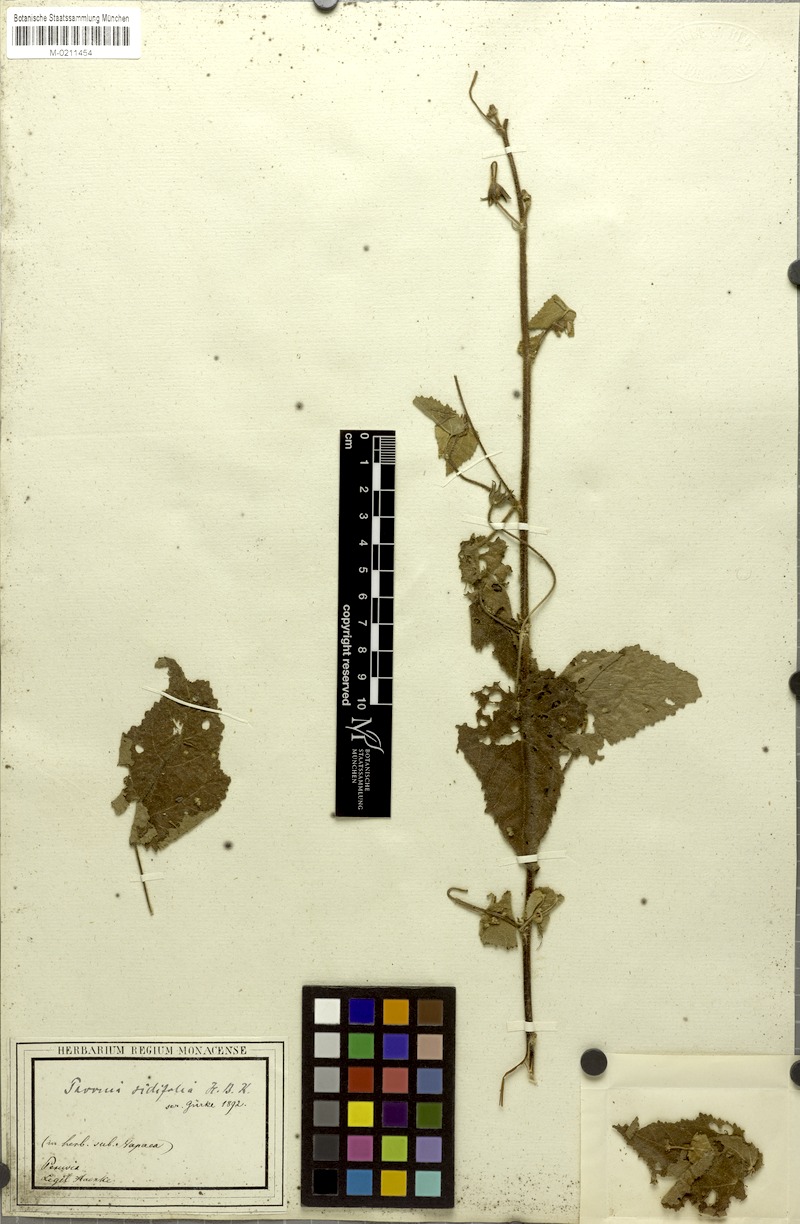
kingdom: Plantae
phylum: Tracheophyta
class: Magnoliopsida
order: Malvales
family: Malvaceae
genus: Pavonia
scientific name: Pavonia sidifolia
